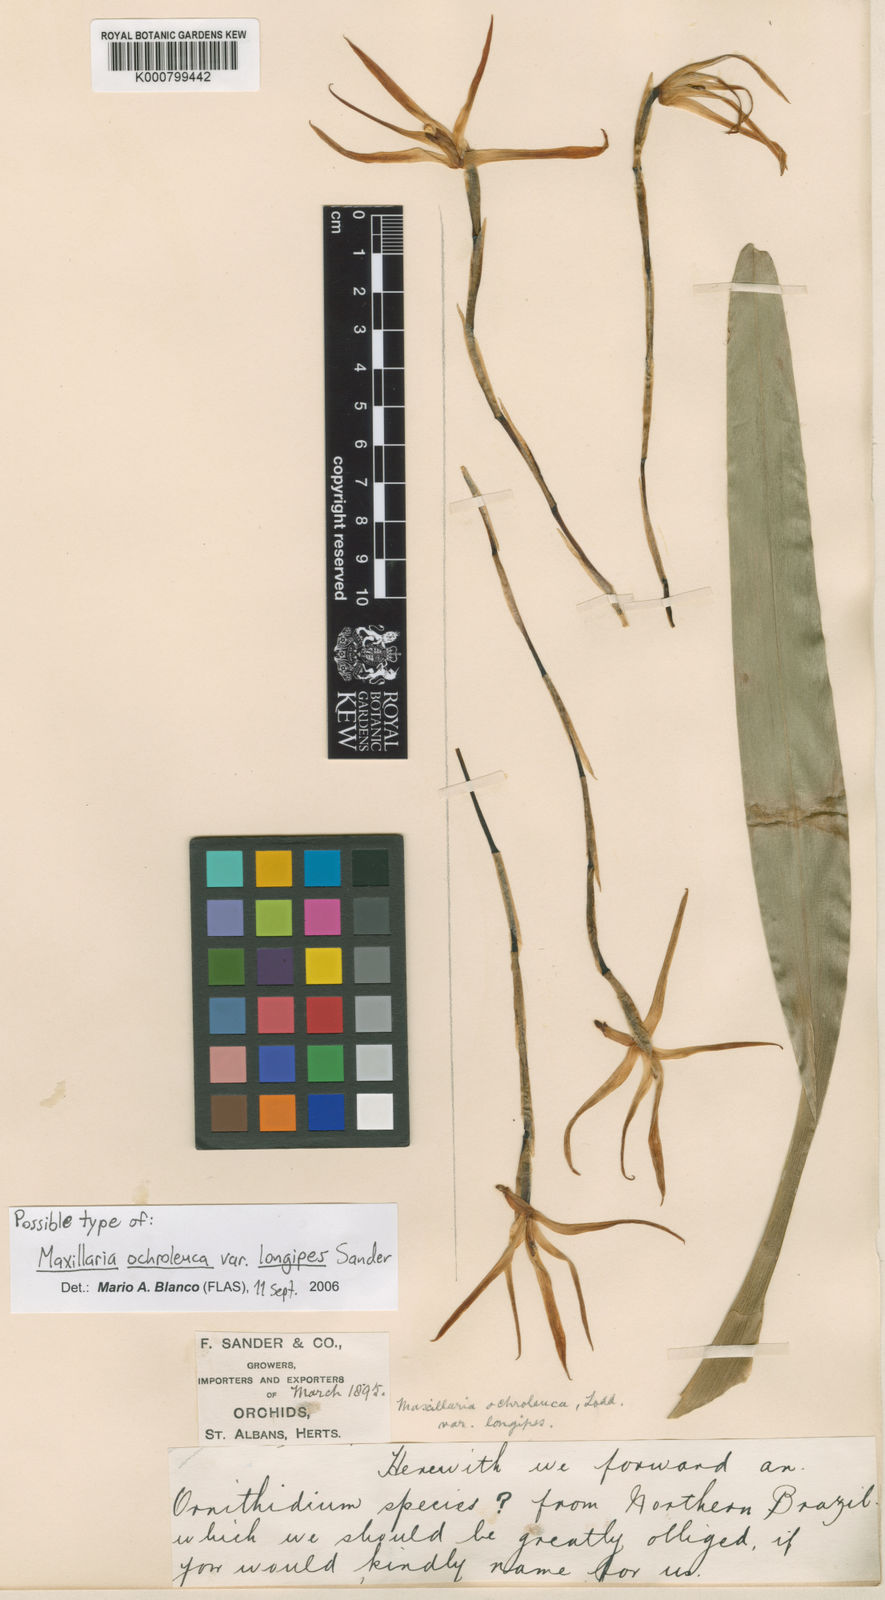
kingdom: Plantae
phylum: Tracheophyta
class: Liliopsida
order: Asparagales
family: Orchidaceae
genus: Maxillaria
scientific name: Maxillaria ochroleuca
